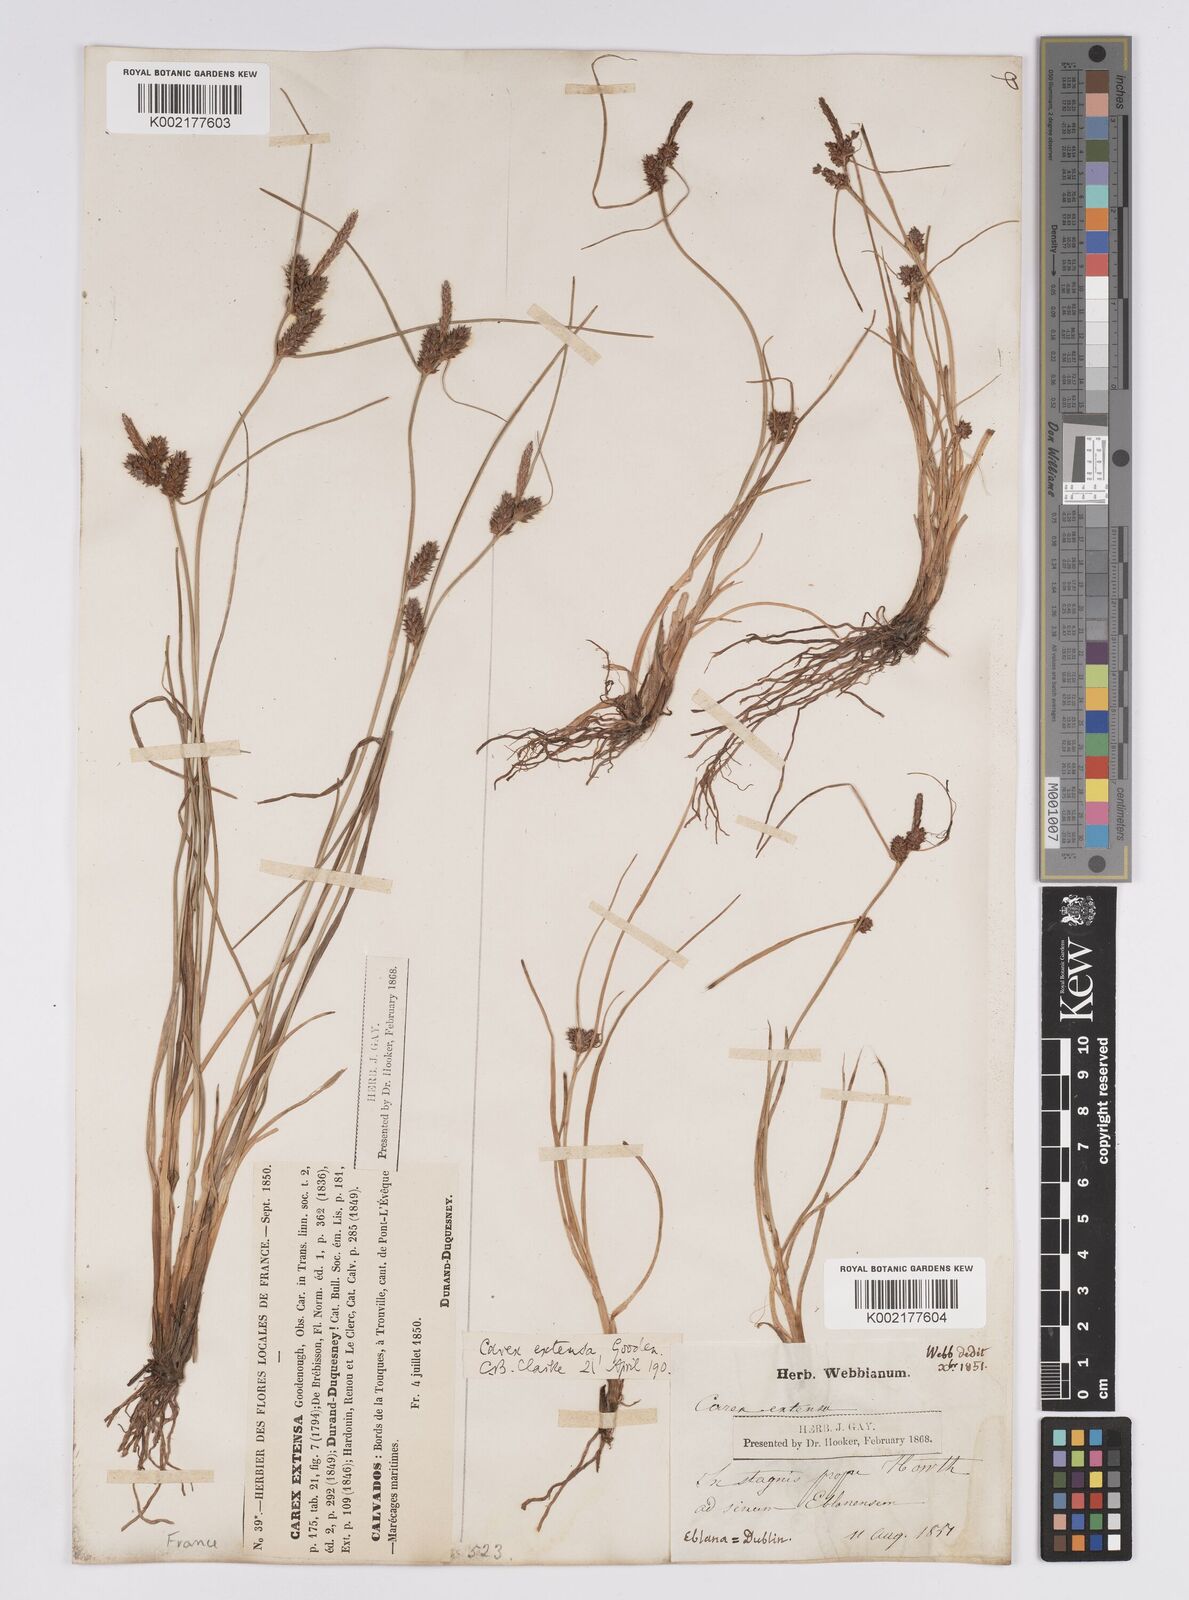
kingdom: Plantae
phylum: Tracheophyta
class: Liliopsida
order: Poales
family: Cyperaceae
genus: Carex
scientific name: Carex extensa
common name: Long-bracted sedge
